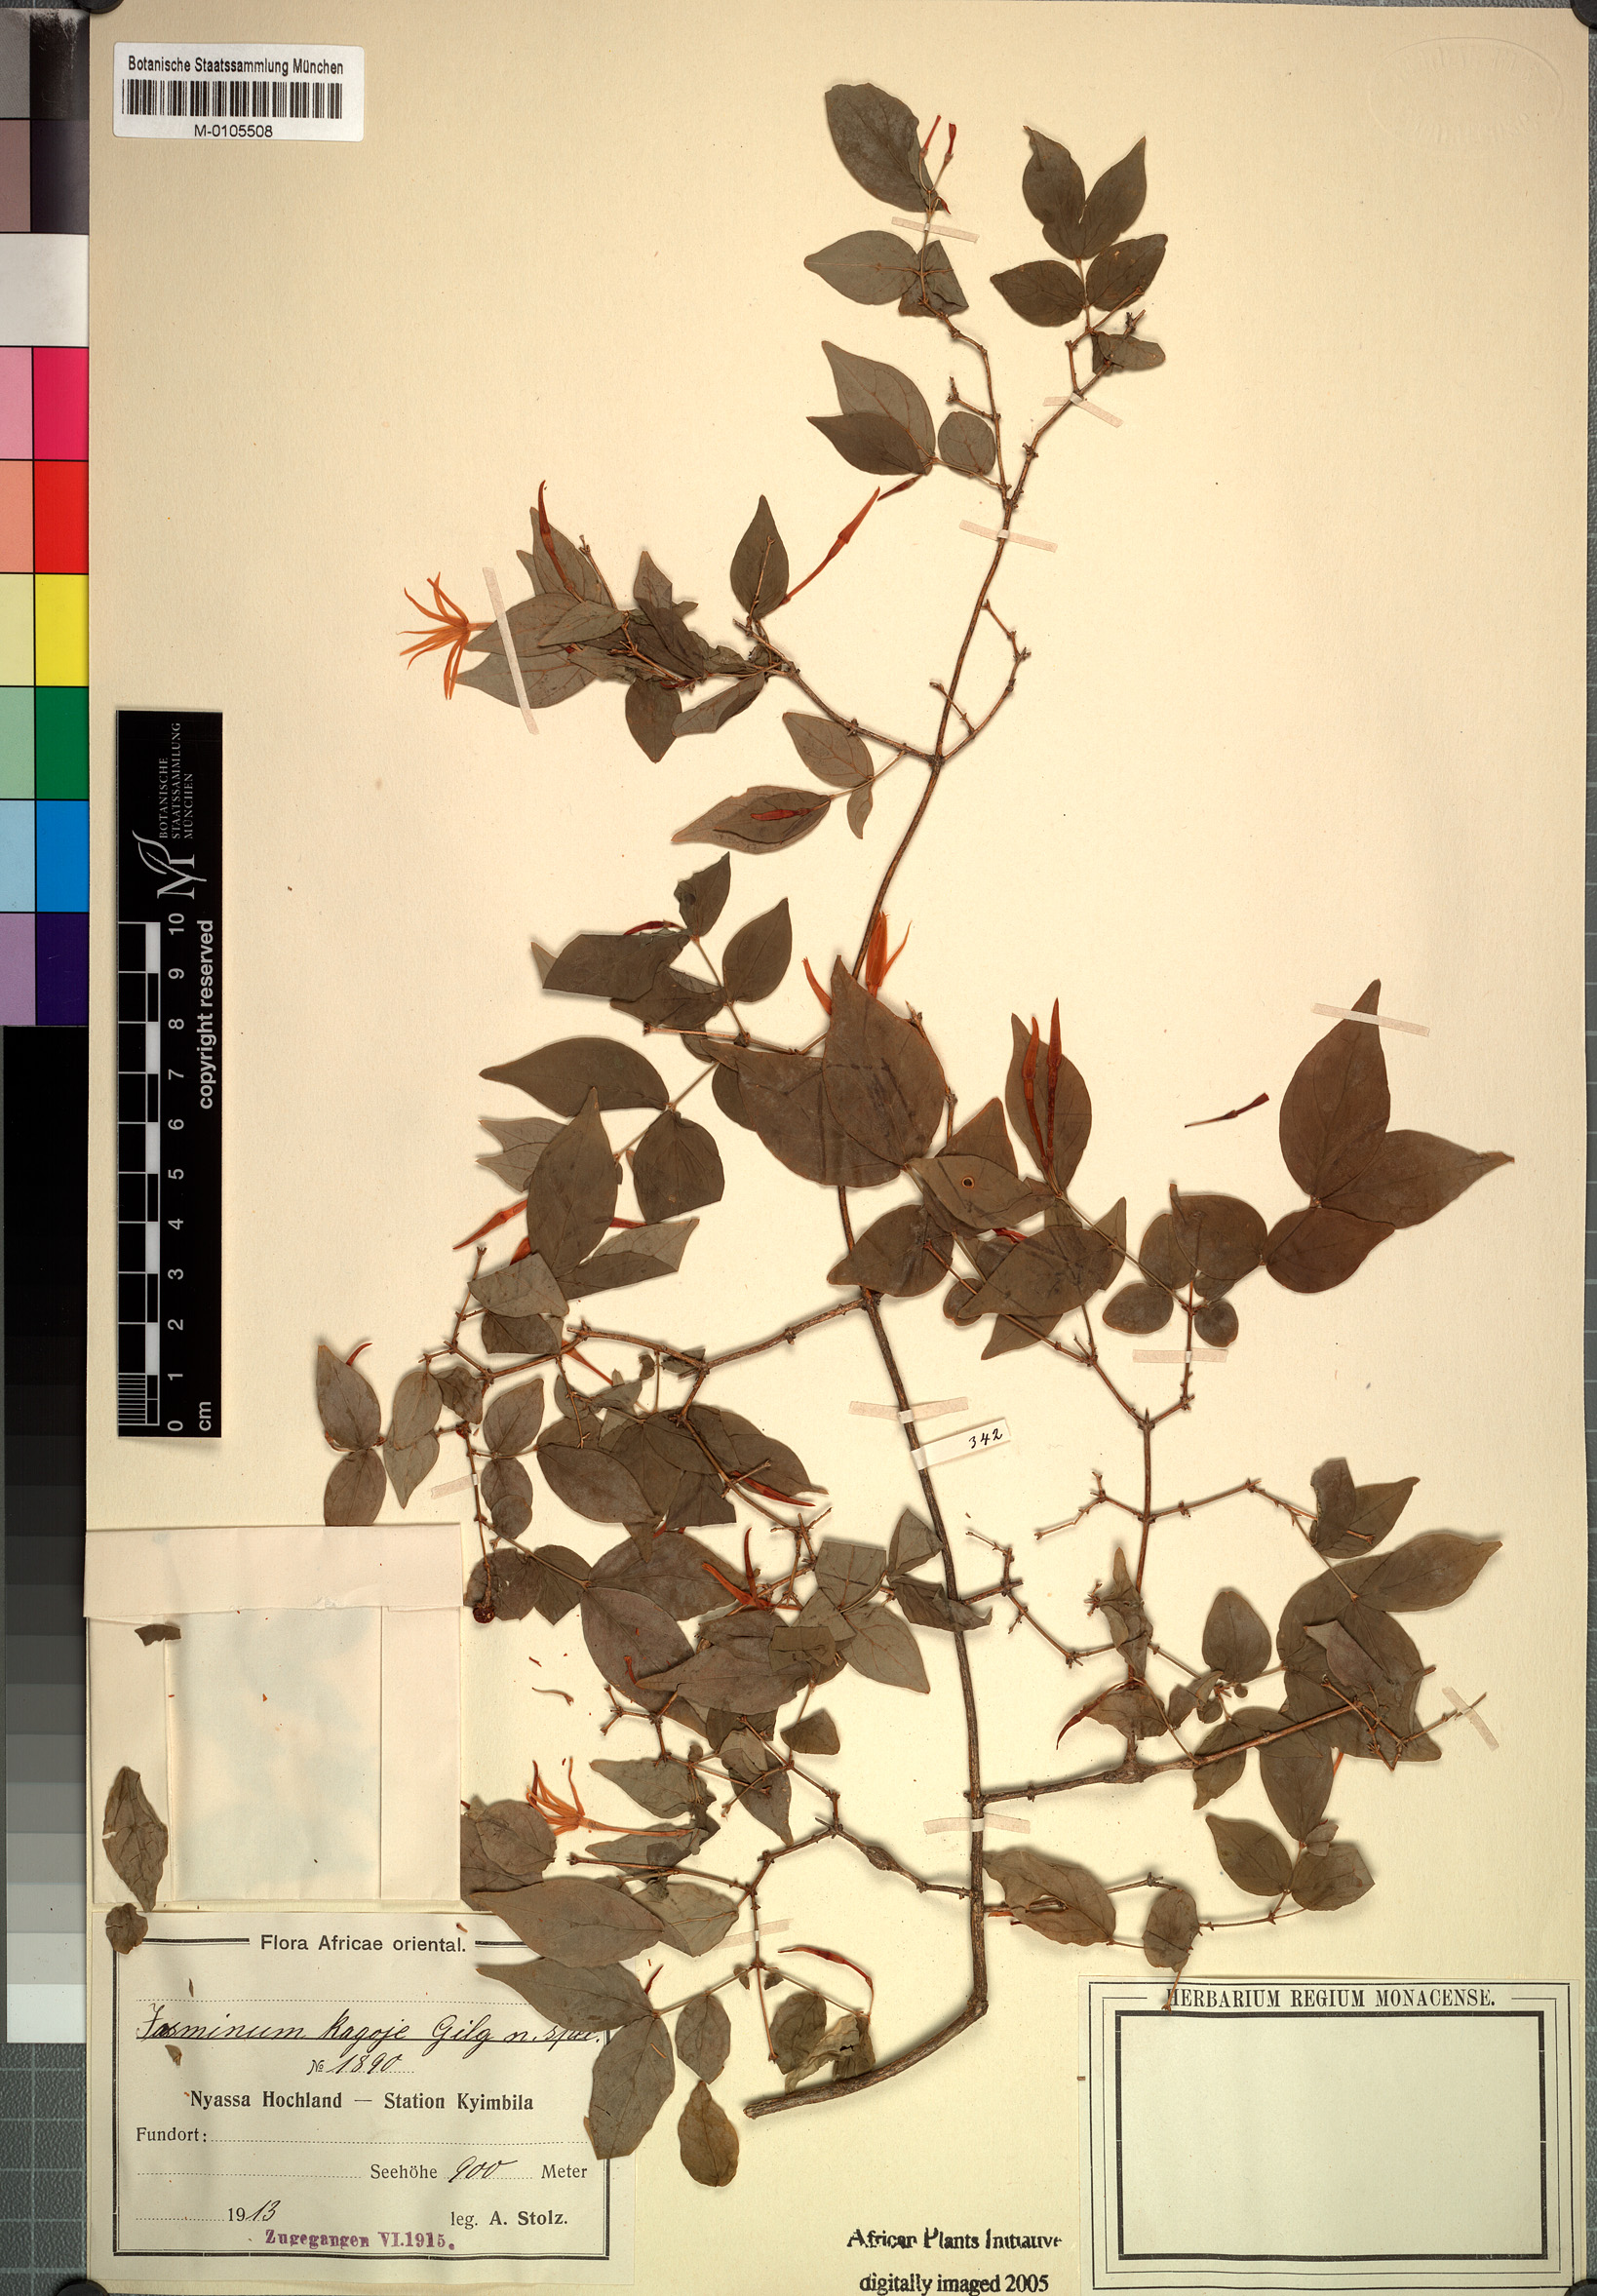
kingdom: Plantae
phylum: Tracheophyta
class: Magnoliopsida
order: Lamiales
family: Oleaceae
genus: Jasminum
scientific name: Jasminum
